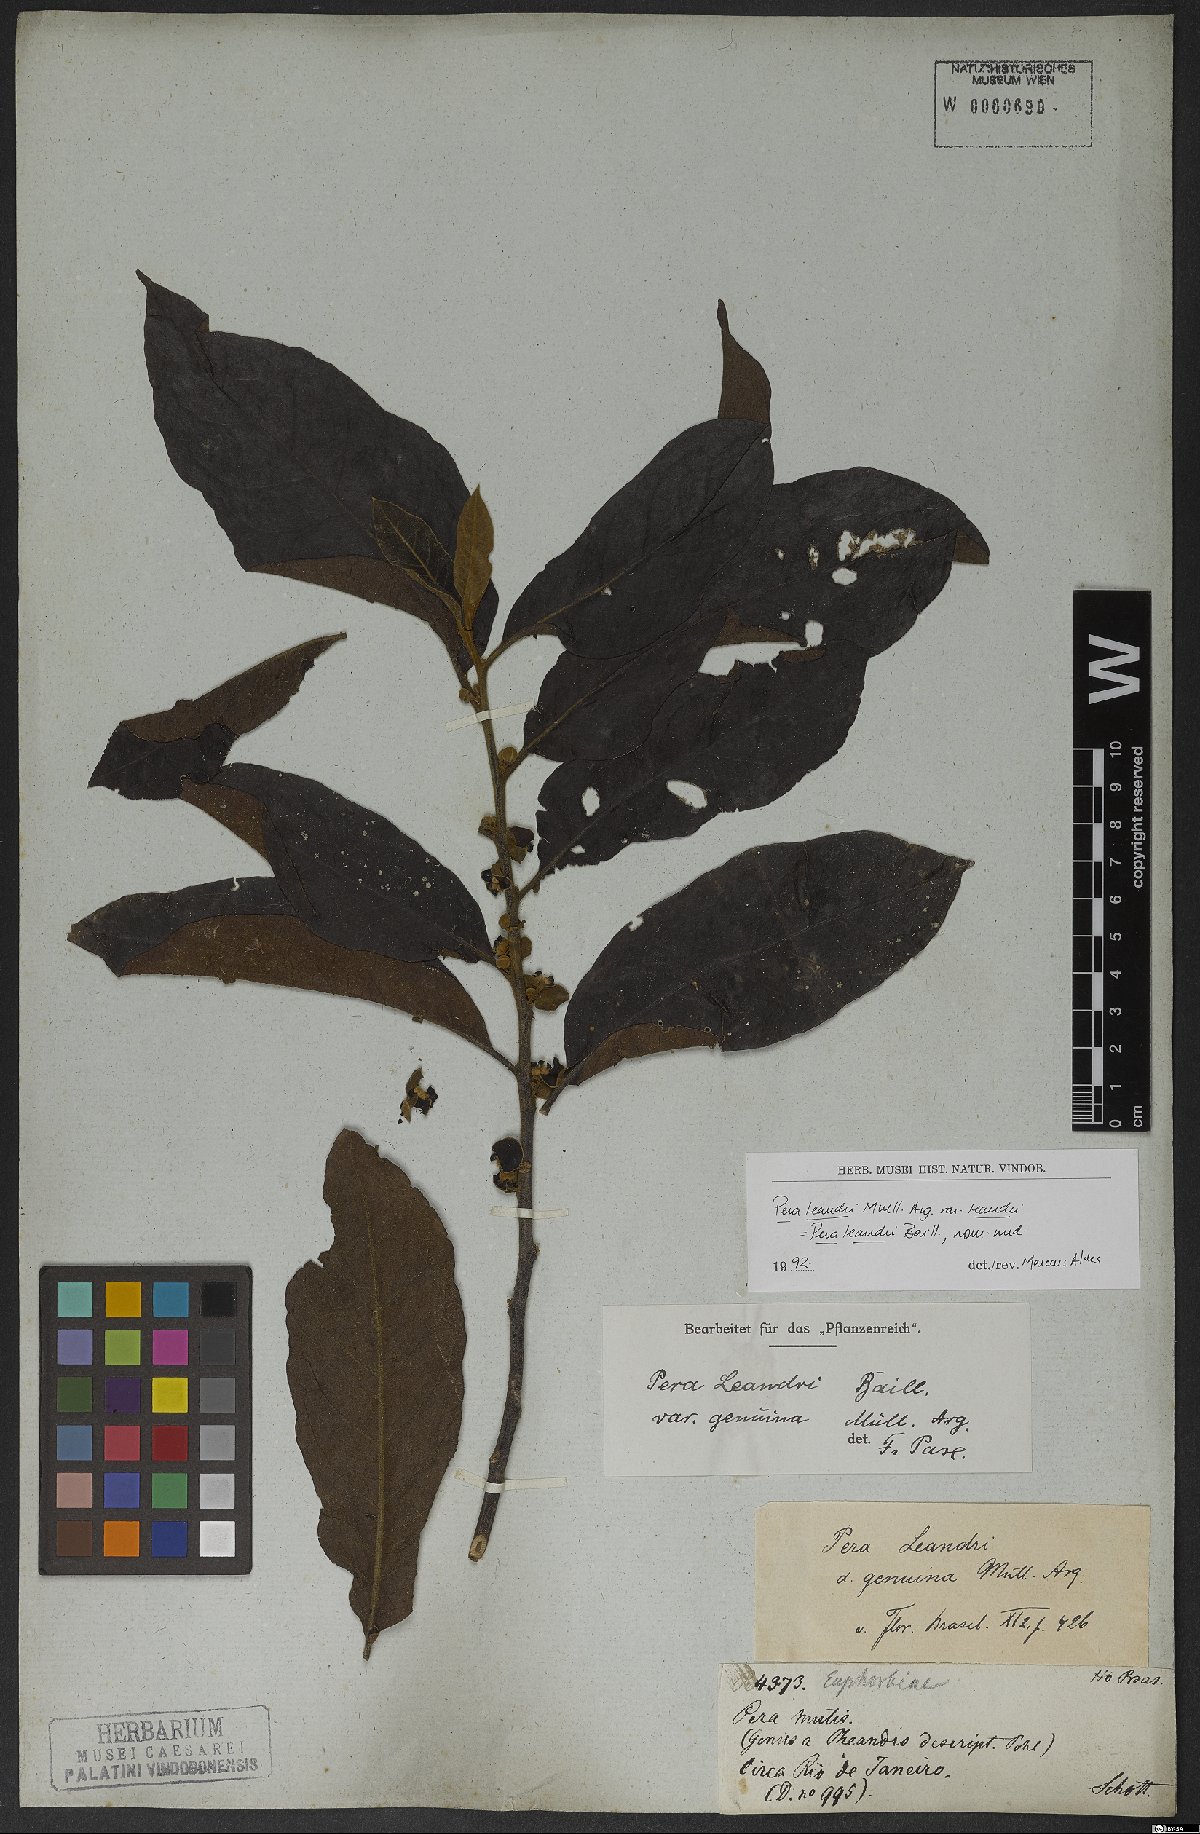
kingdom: Plantae
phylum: Tracheophyta
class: Magnoliopsida
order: Malpighiales
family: Peraceae
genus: Pera
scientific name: Pera heteranthera
